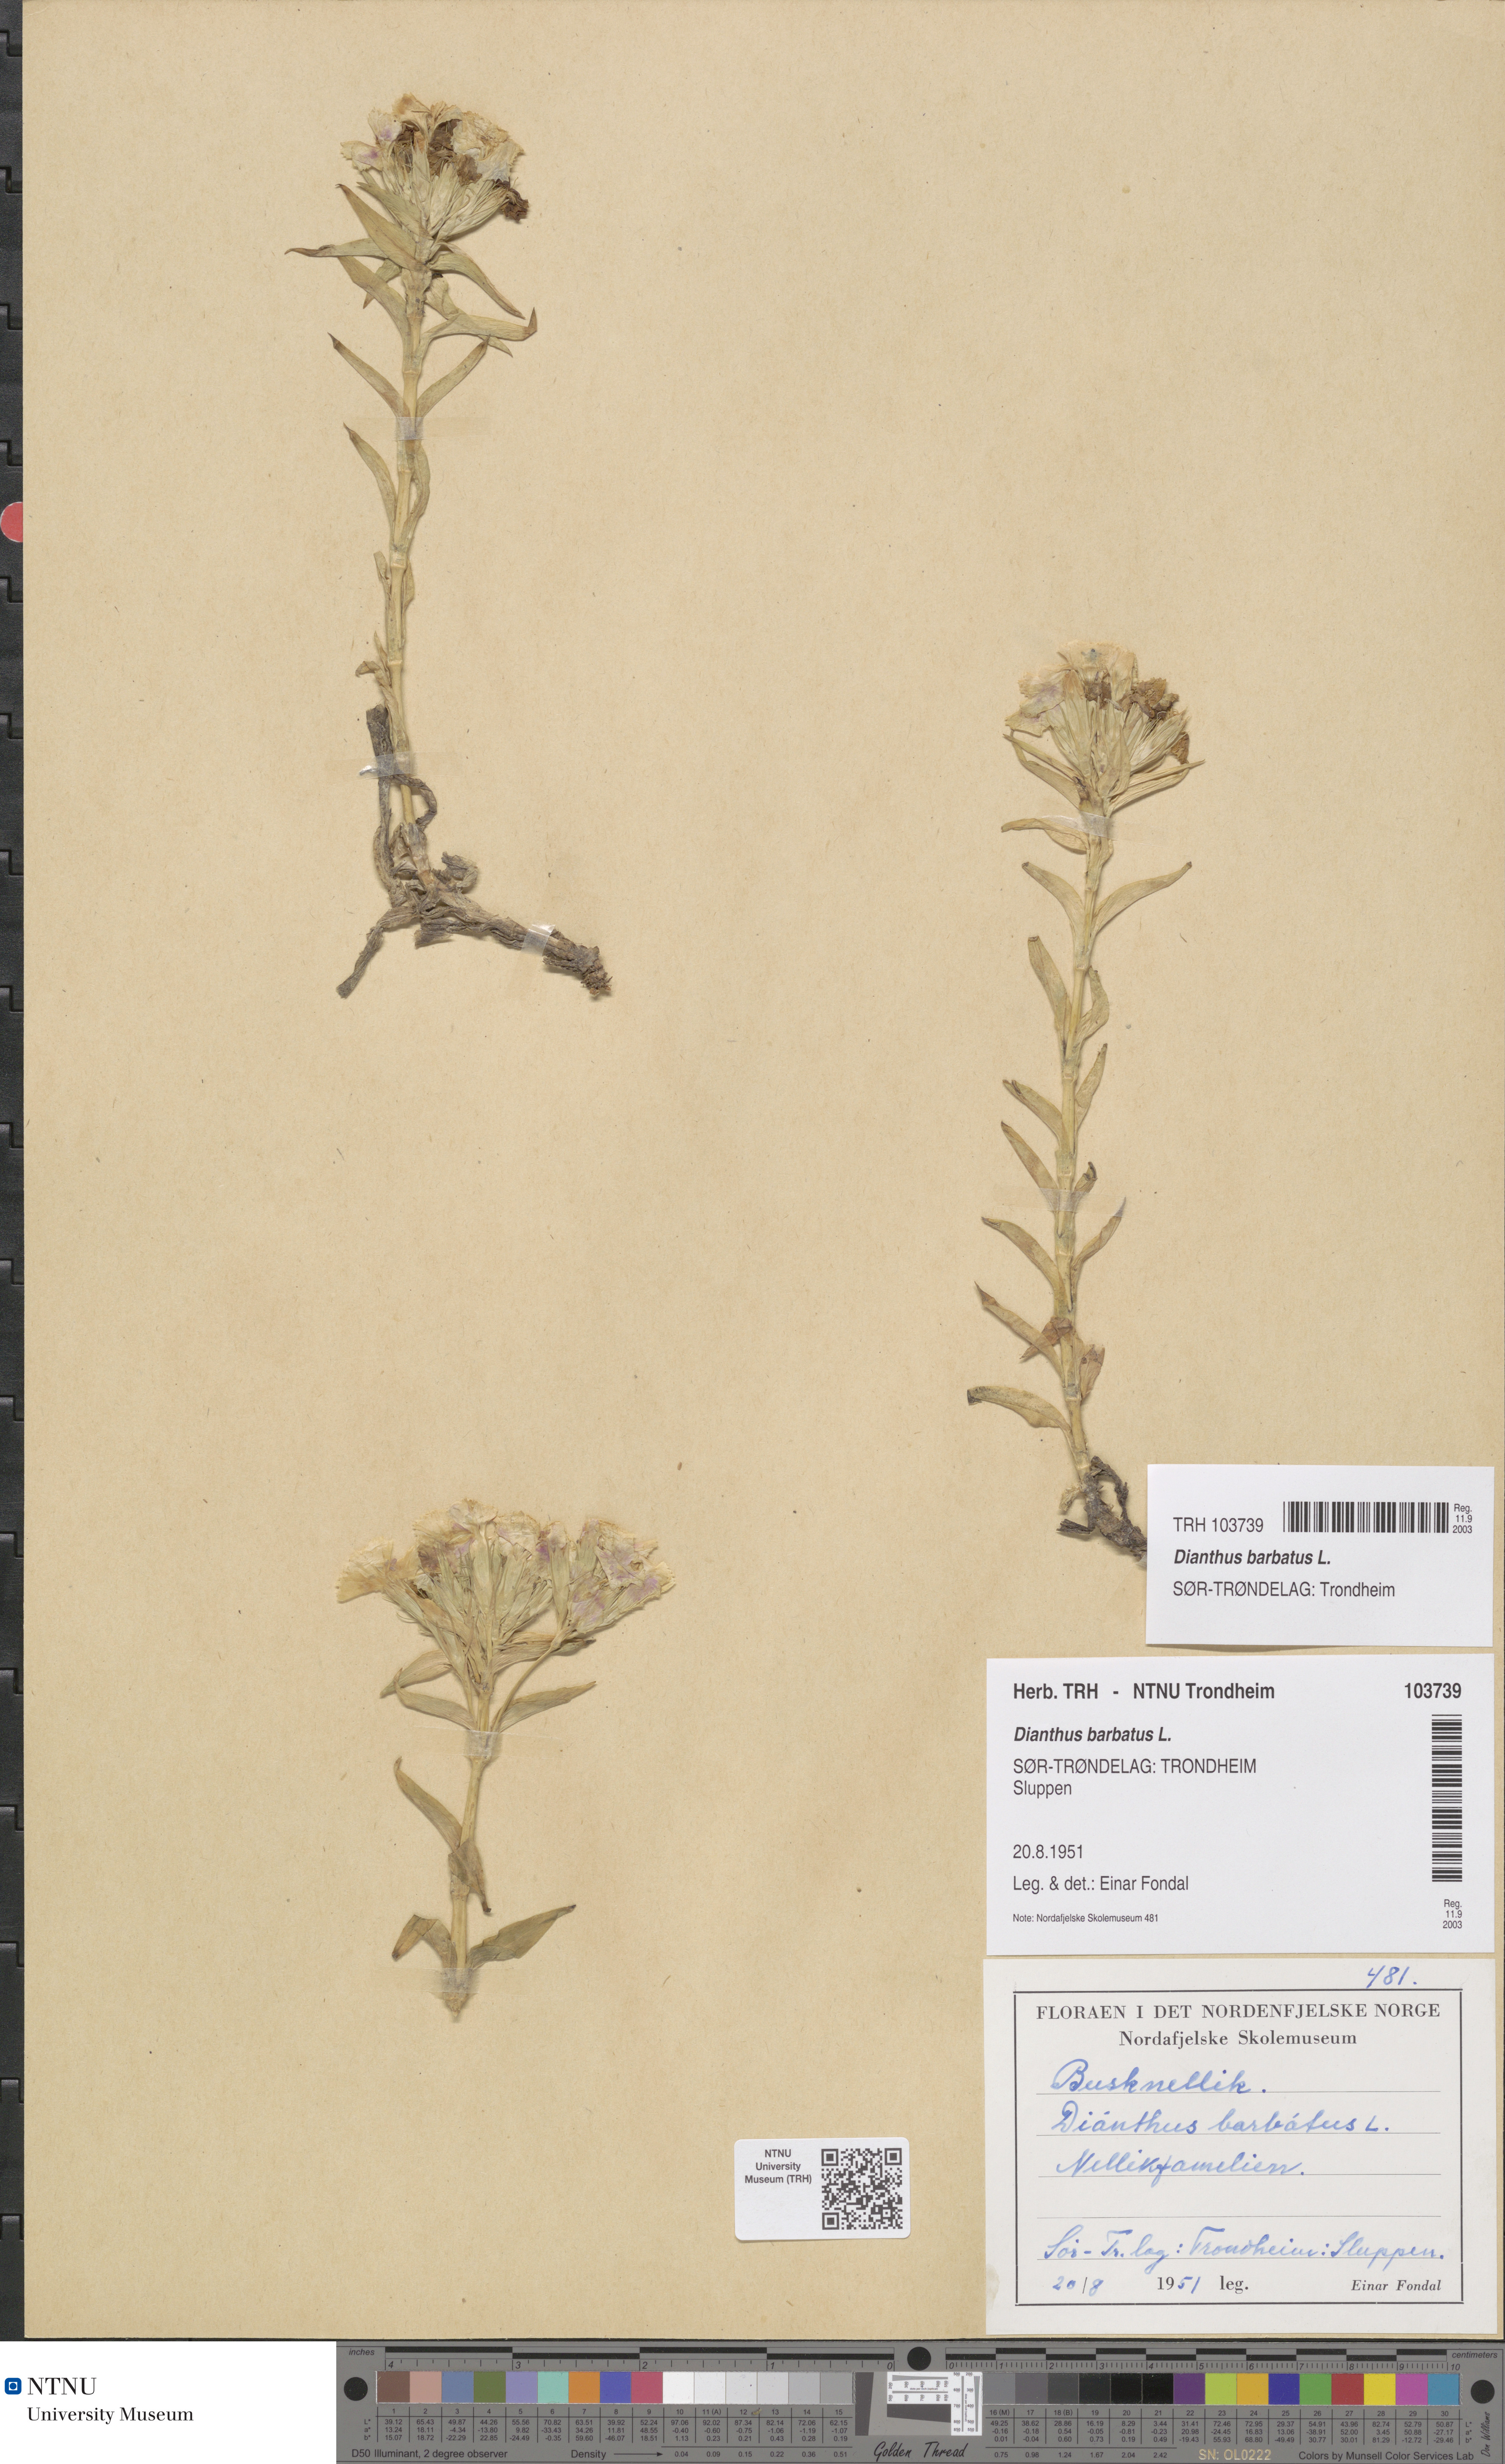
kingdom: Plantae
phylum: Tracheophyta
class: Magnoliopsida
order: Caryophyllales
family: Caryophyllaceae
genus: Dianthus
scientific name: Dianthus barbatus
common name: Sweet-william
